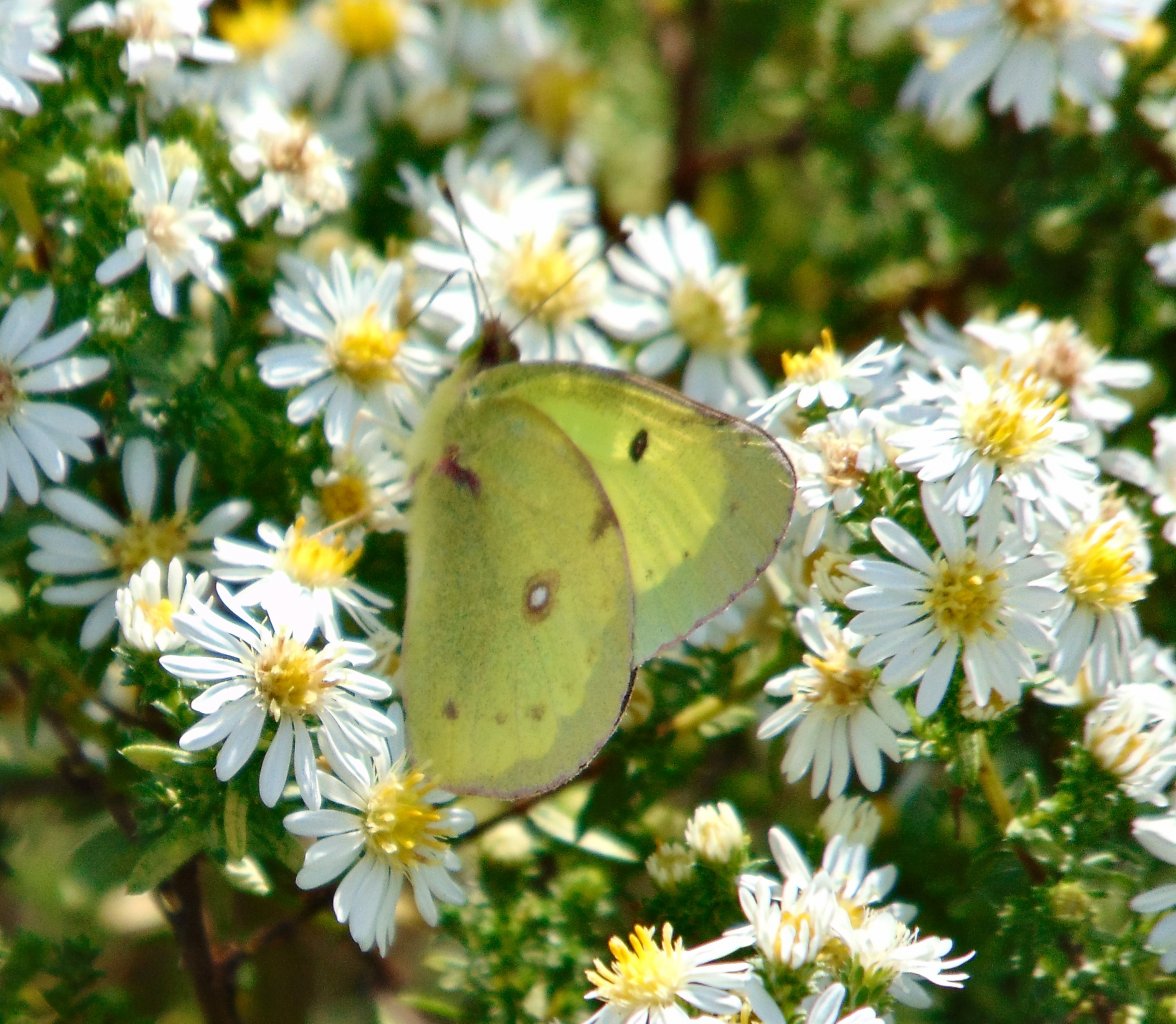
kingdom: Animalia
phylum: Arthropoda
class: Insecta
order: Lepidoptera
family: Pieridae
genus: Colias
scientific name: Colias philodice
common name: Clouded Sulphur
